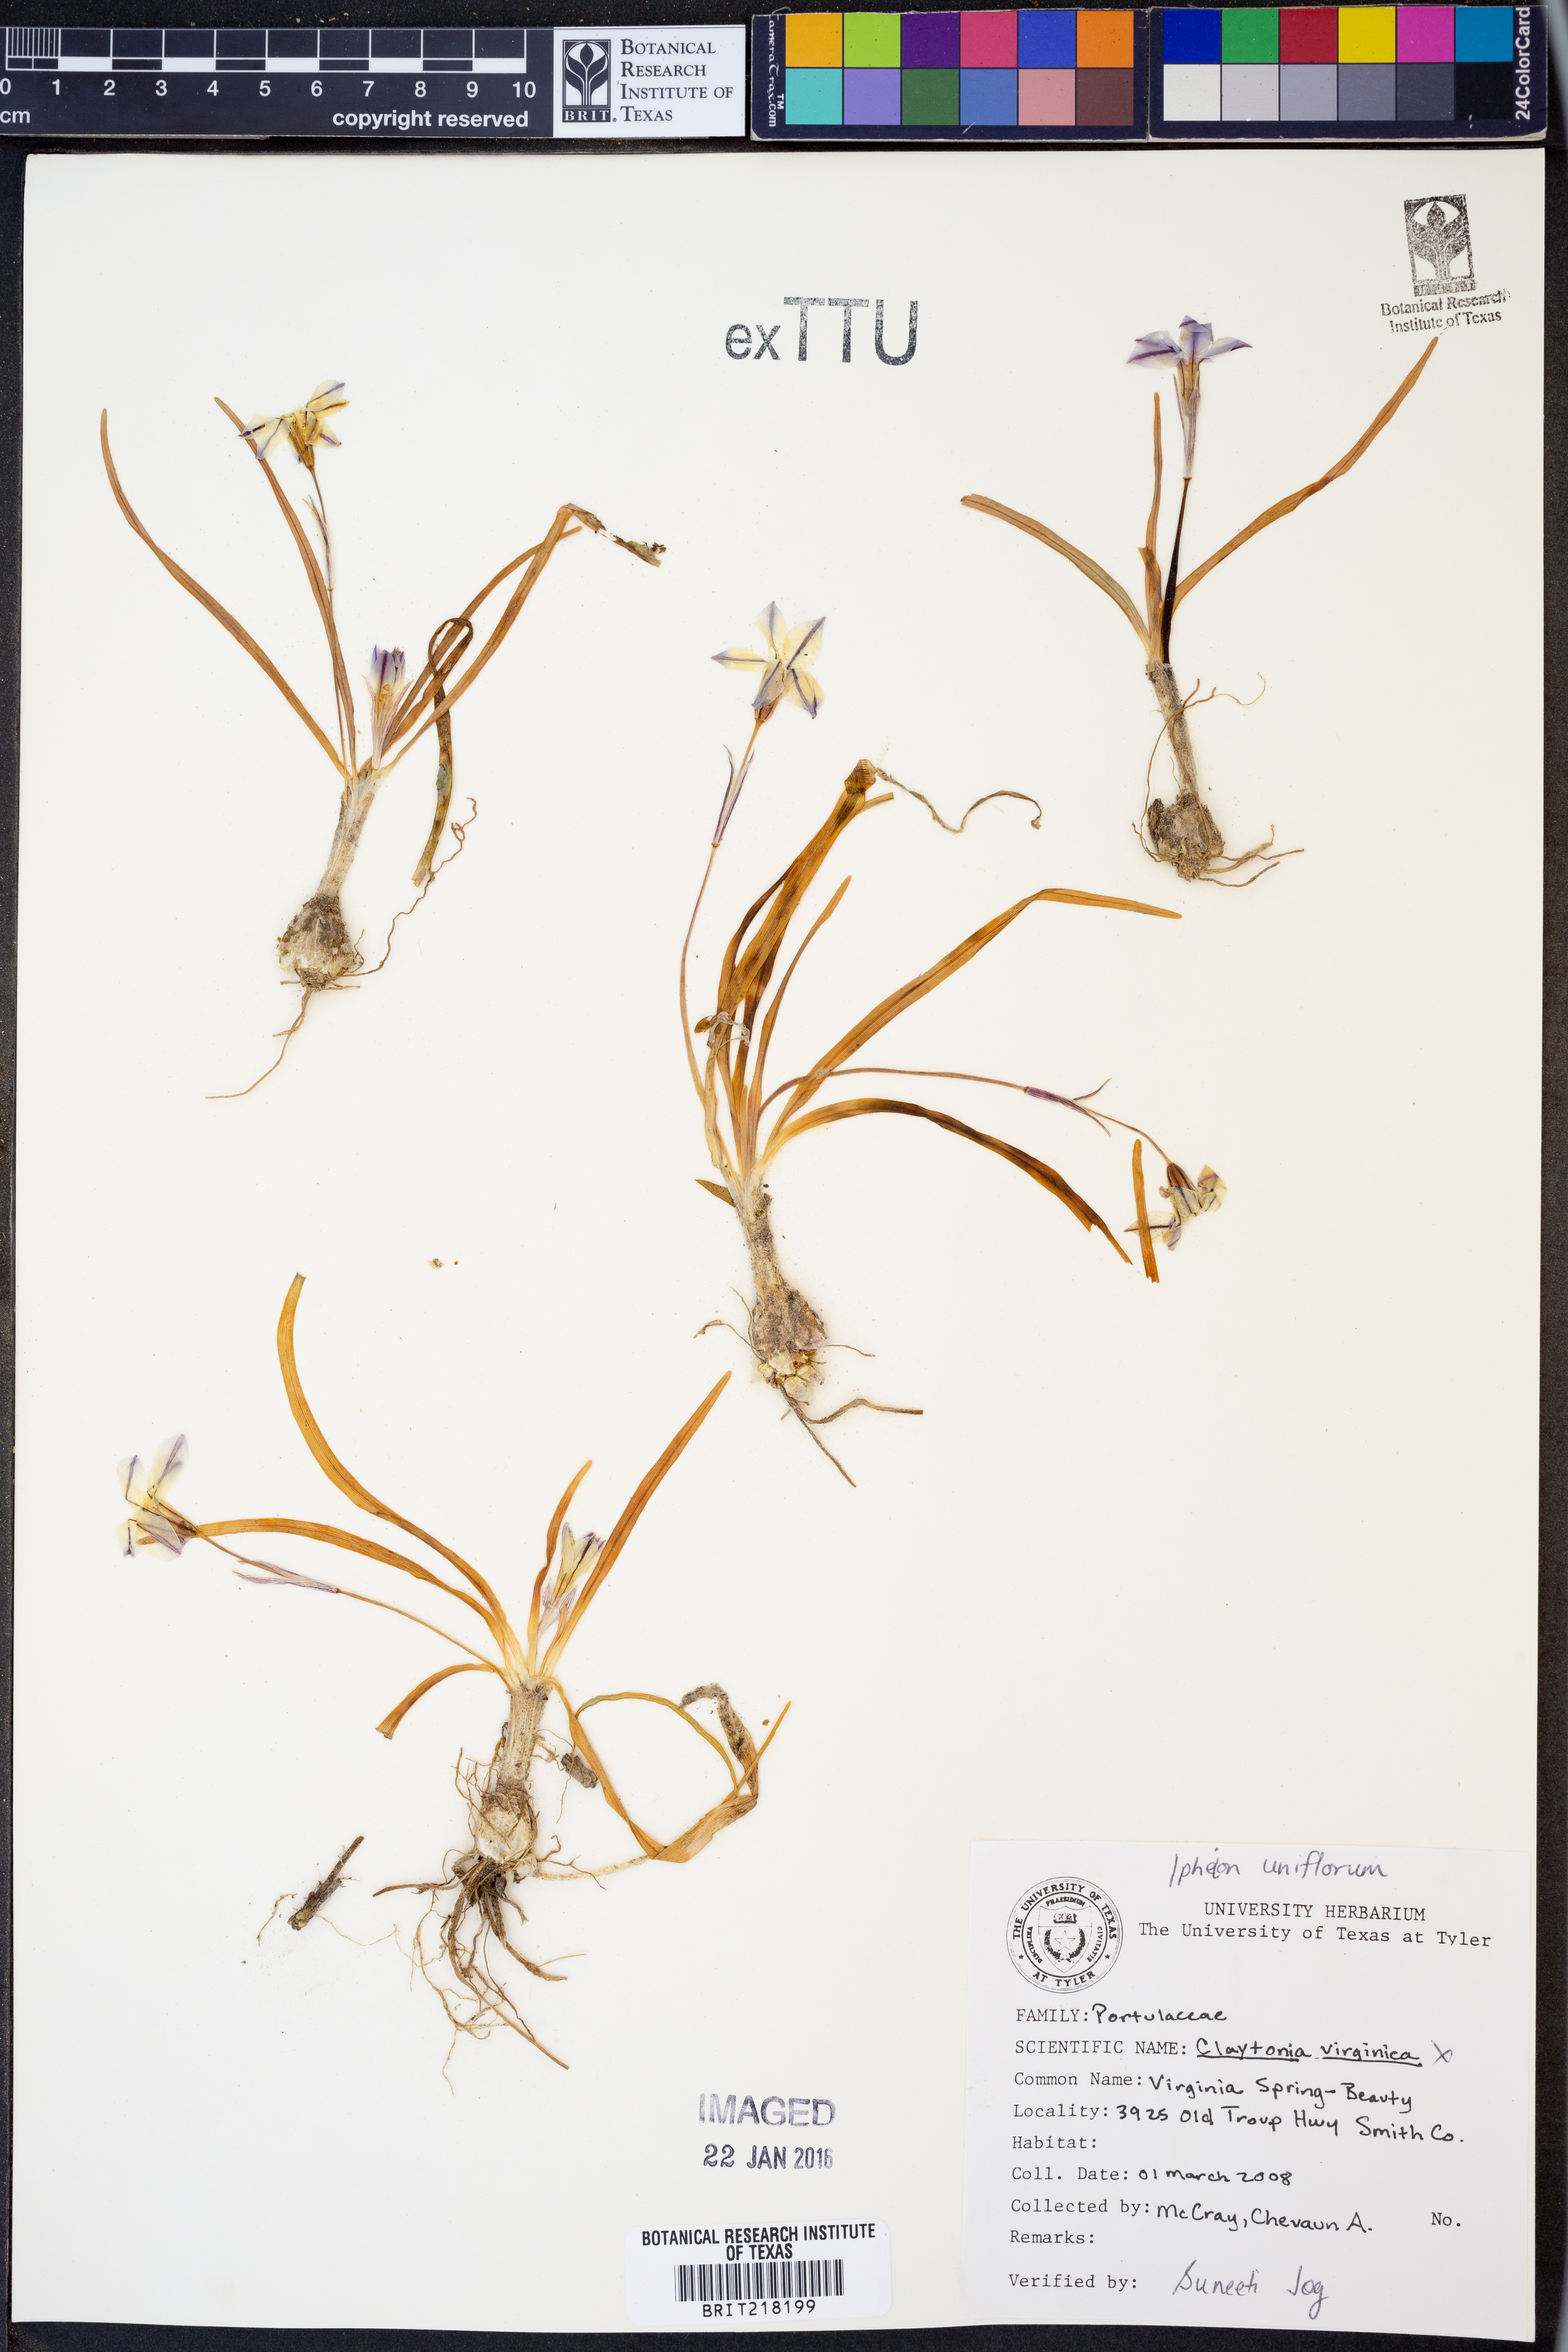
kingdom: Plantae
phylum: Tracheophyta
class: Magnoliopsida
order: Caryophyllales
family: Montiaceae
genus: Claytonia
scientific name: Claytonia virginica
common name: Virginia springbeauty
